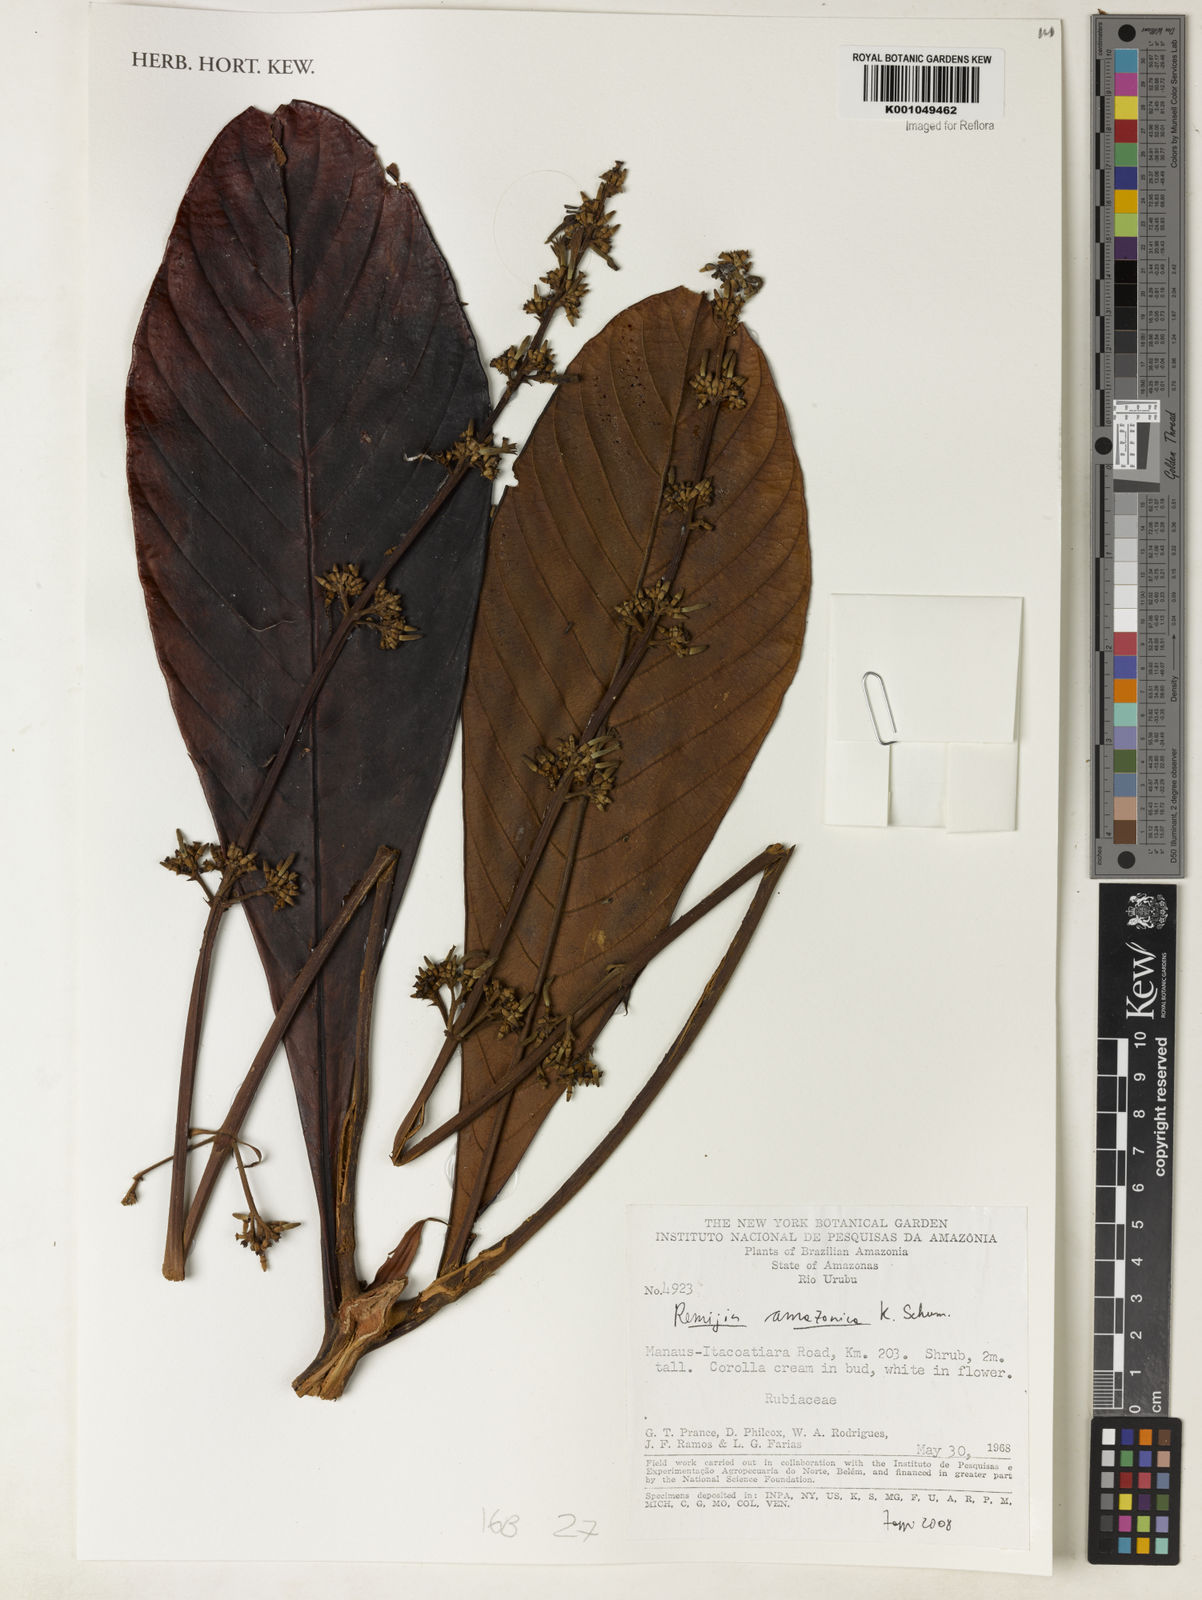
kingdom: Plantae
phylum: Tracheophyta
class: Magnoliopsida
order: Gentianales
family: Rubiaceae
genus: Remijia
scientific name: Remijia amazonica
